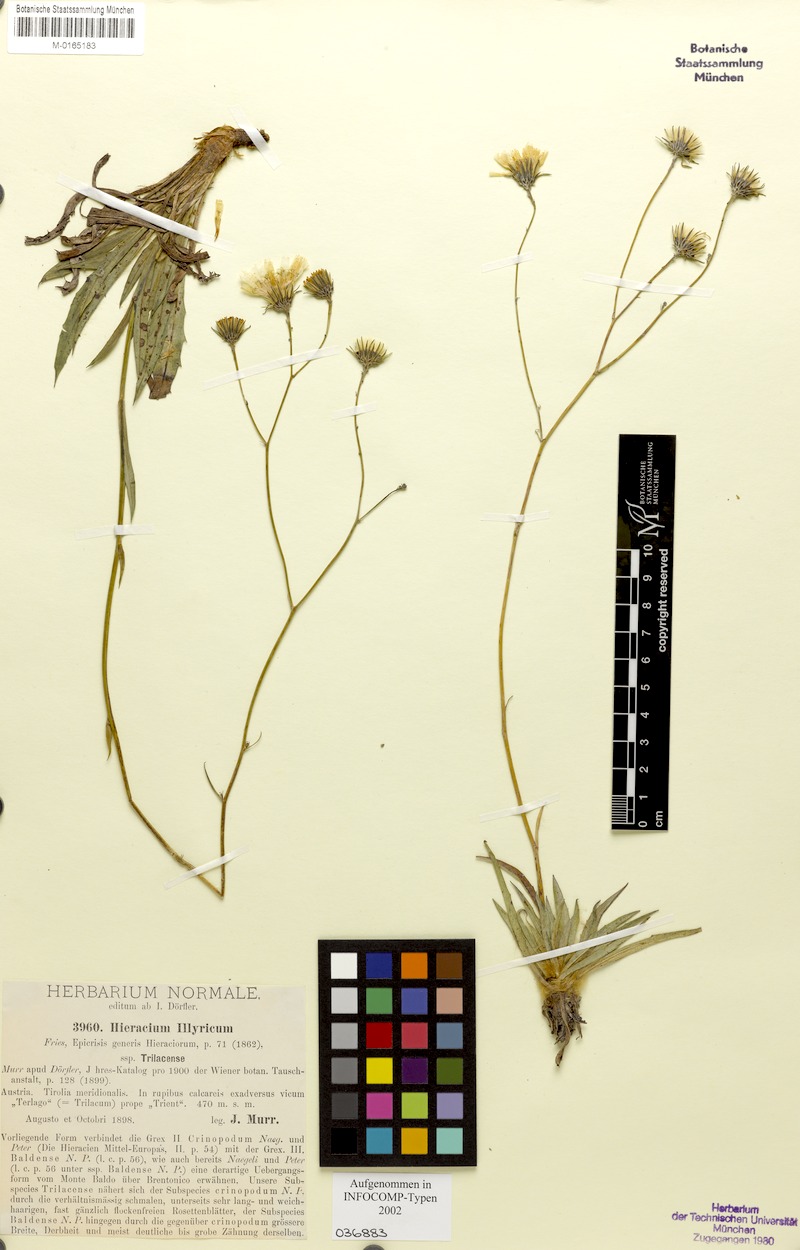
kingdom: Plantae
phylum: Tracheophyta
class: Magnoliopsida
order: Asterales
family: Asteraceae
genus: Hieracium
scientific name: Hieracium calcareum
